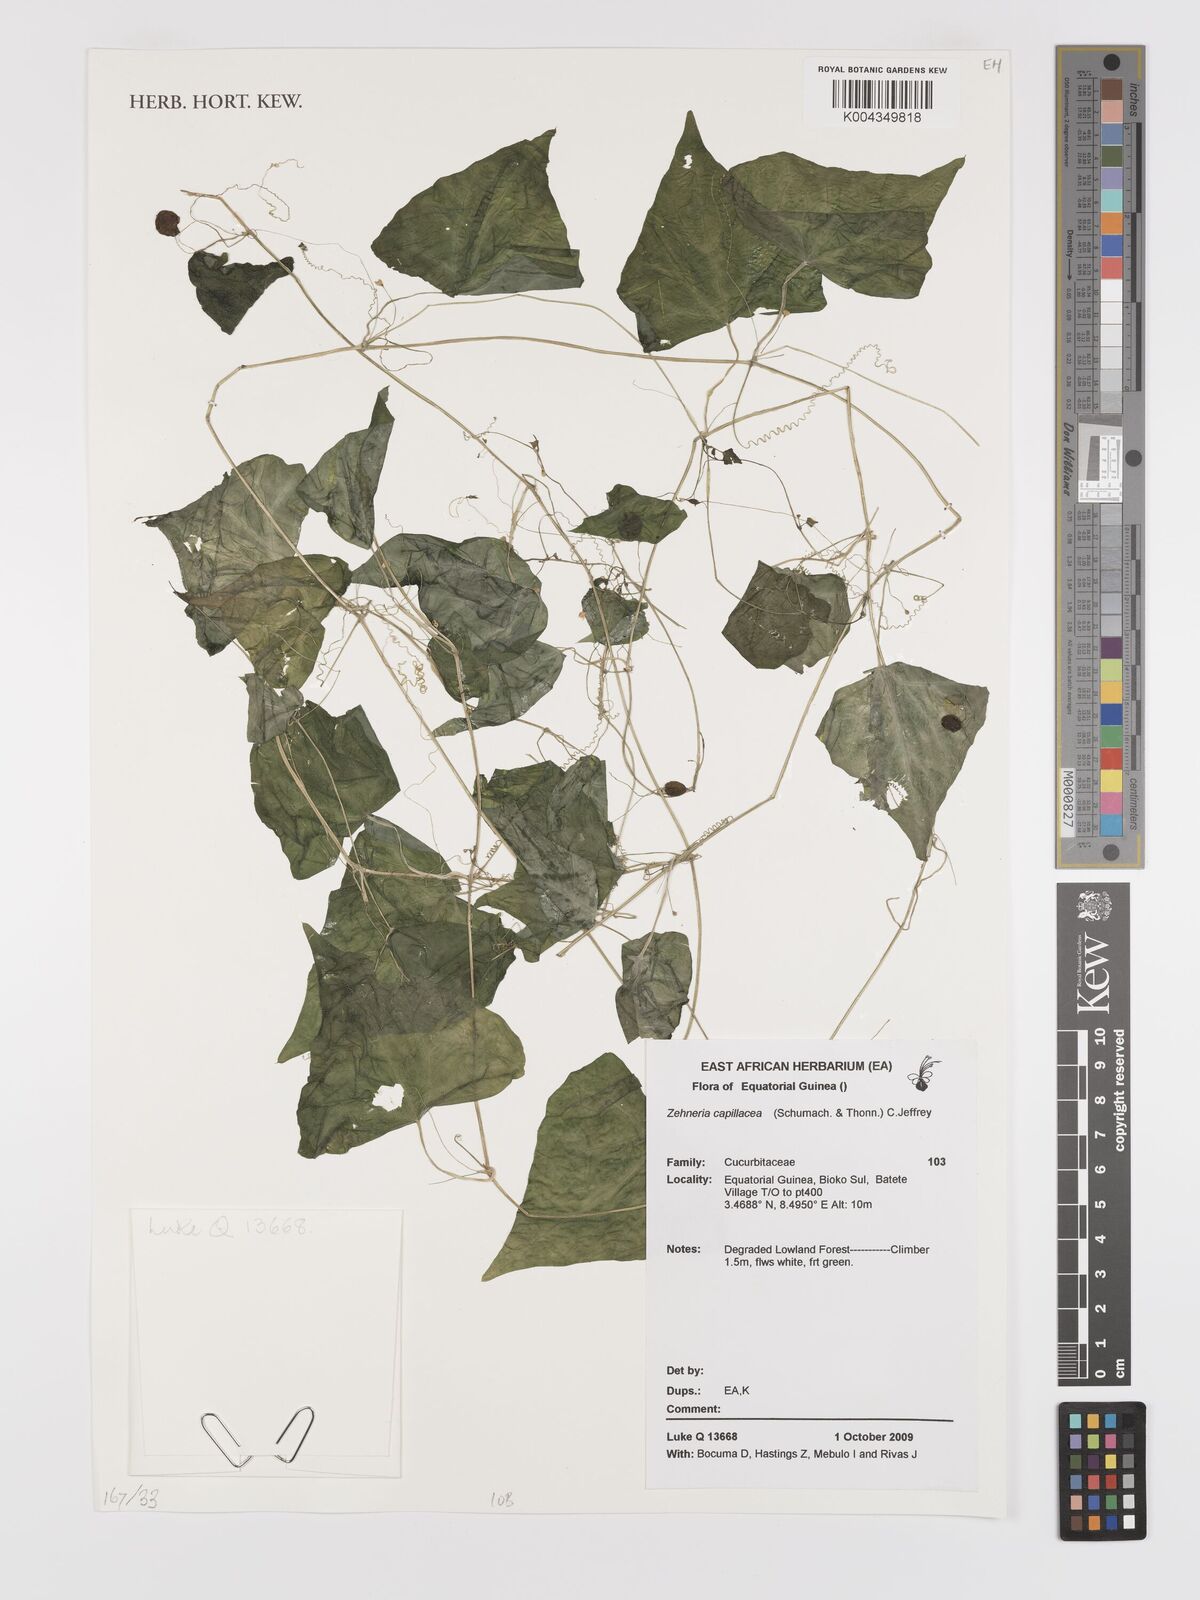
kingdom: Plantae
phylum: Tracheophyta
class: Magnoliopsida
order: Cucurbitales
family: Cucurbitaceae
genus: Zehneria
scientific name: Zehneria capillacea
